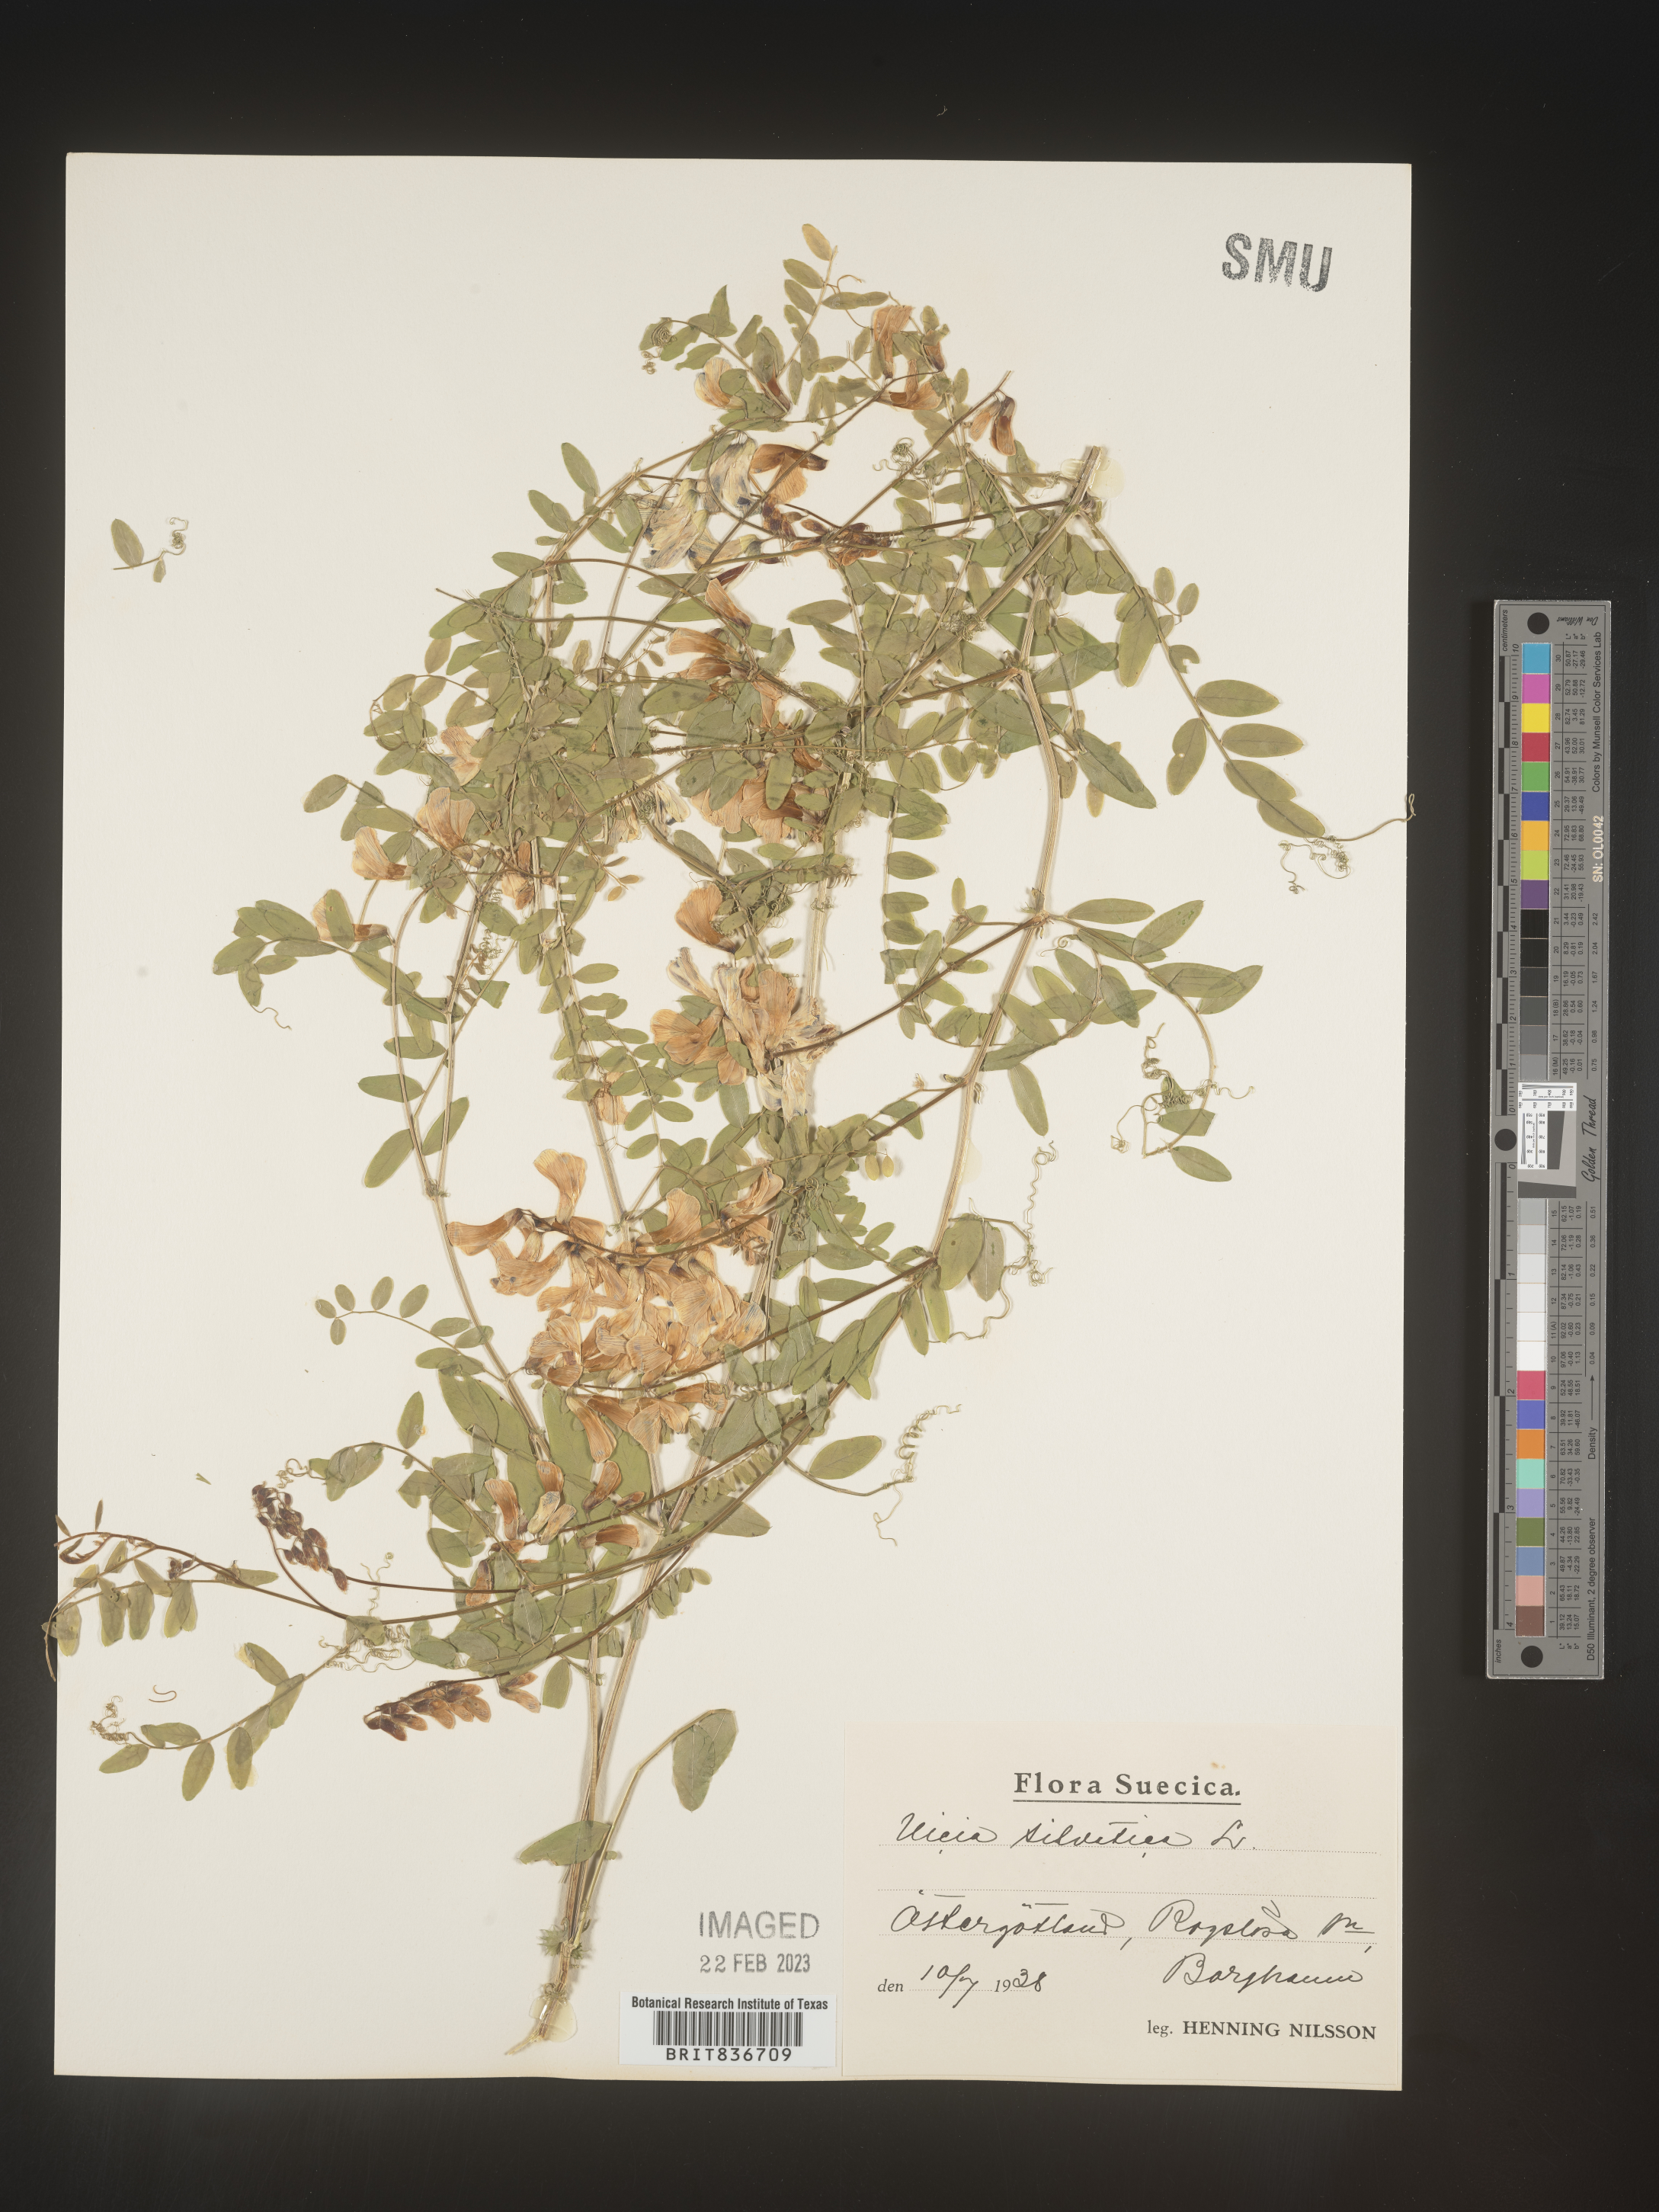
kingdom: Plantae
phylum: Tracheophyta
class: Magnoliopsida
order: Fabales
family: Fabaceae
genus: Vicia
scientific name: Vicia sylvatica
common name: Wood vetch
